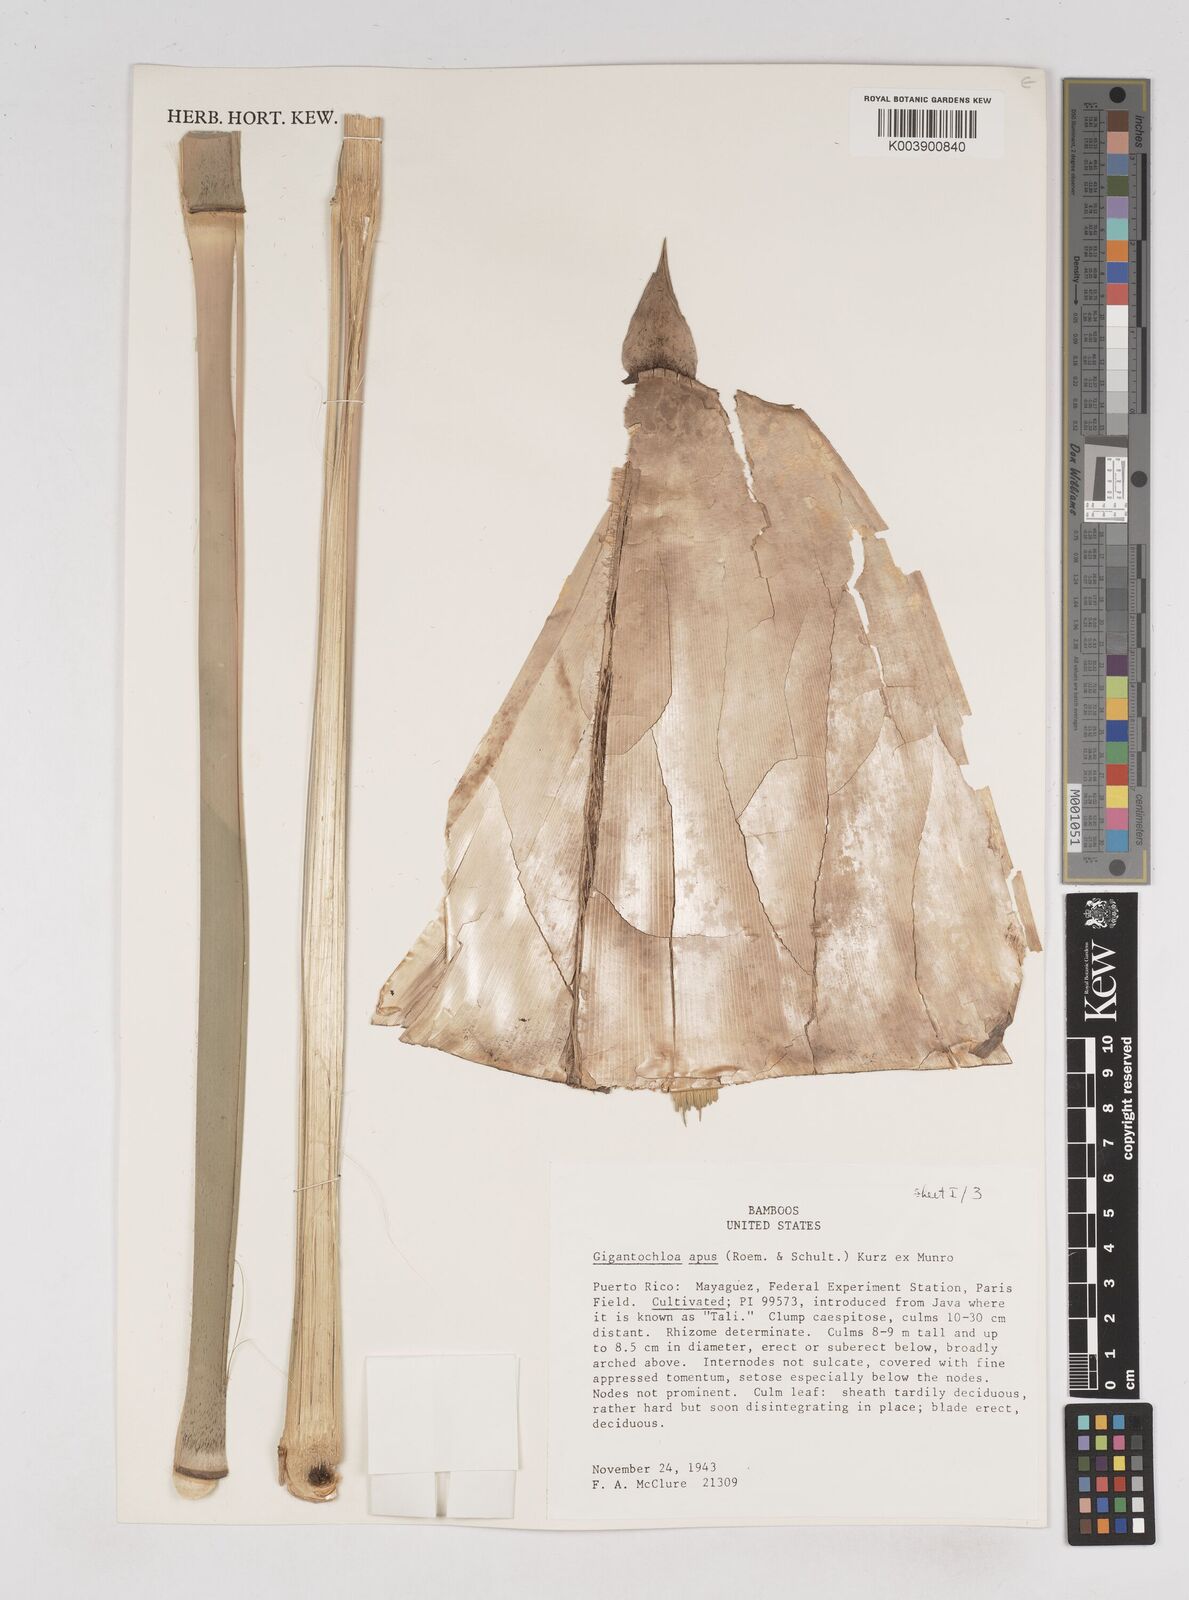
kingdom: Plantae
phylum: Tracheophyta
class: Liliopsida
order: Poales
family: Poaceae
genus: Gigantochloa
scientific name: Gigantochloa apus
